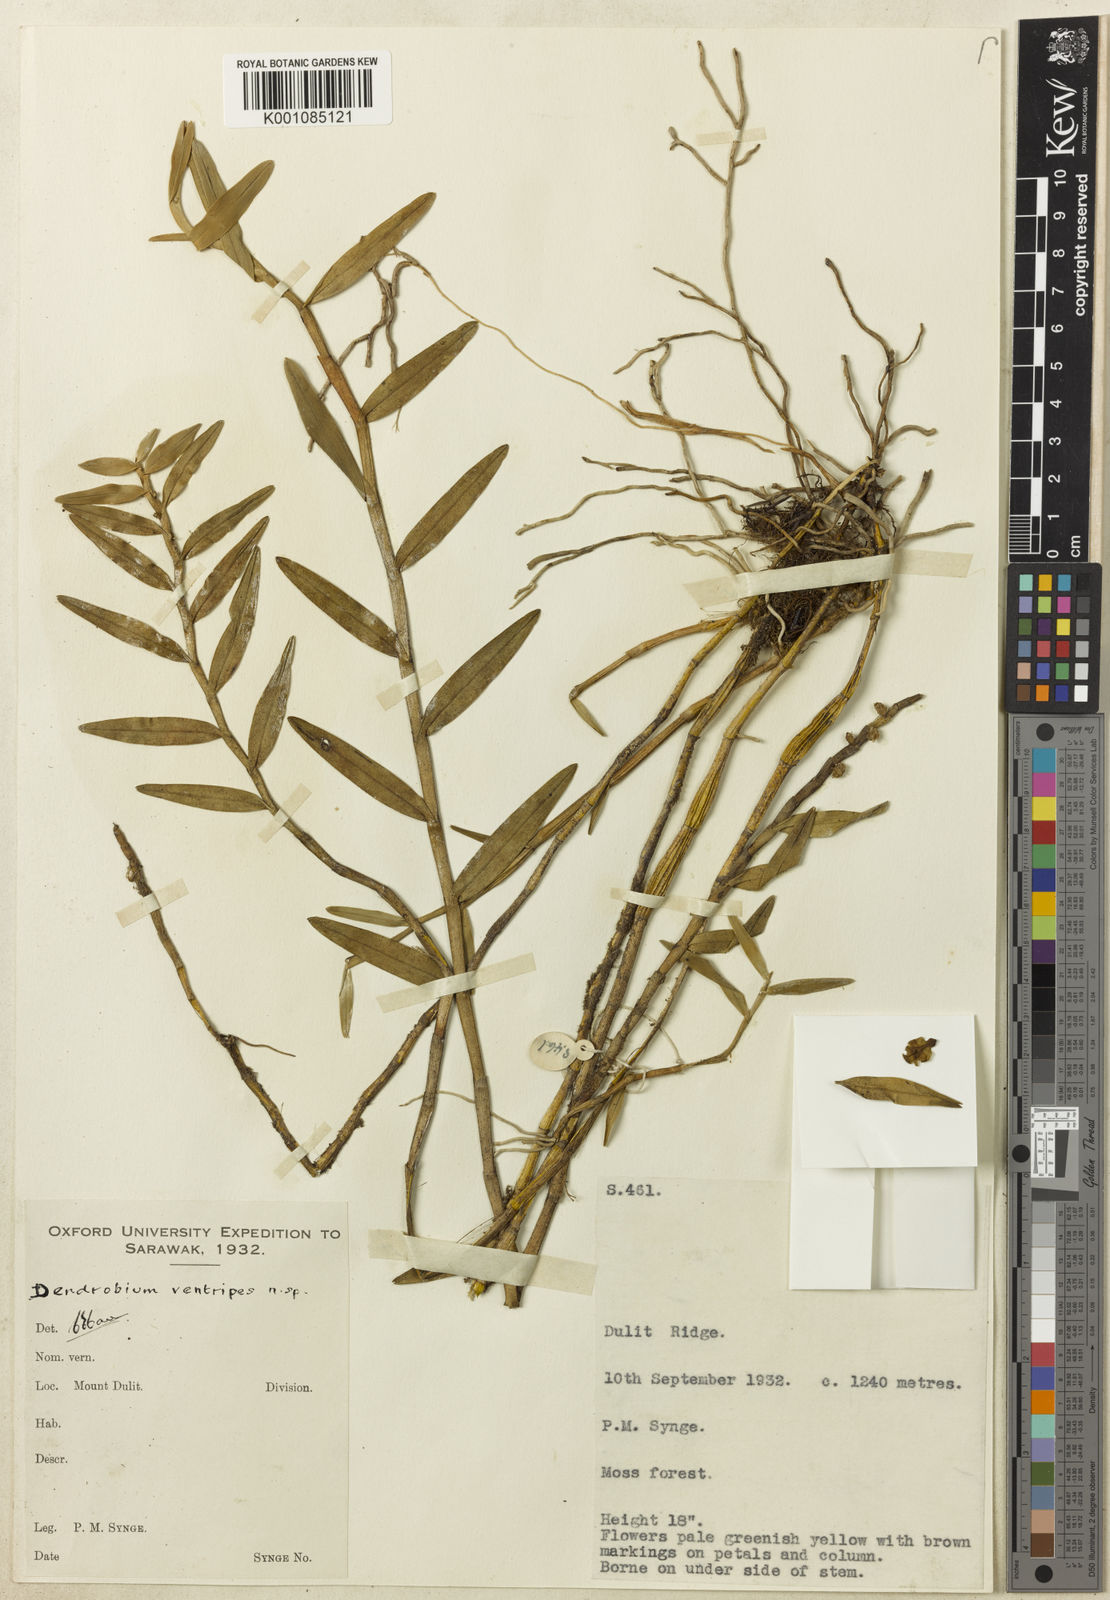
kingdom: Plantae
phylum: Tracheophyta
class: Liliopsida
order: Asparagales
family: Orchidaceae
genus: Dendrobium
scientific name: Dendrobium singulare
